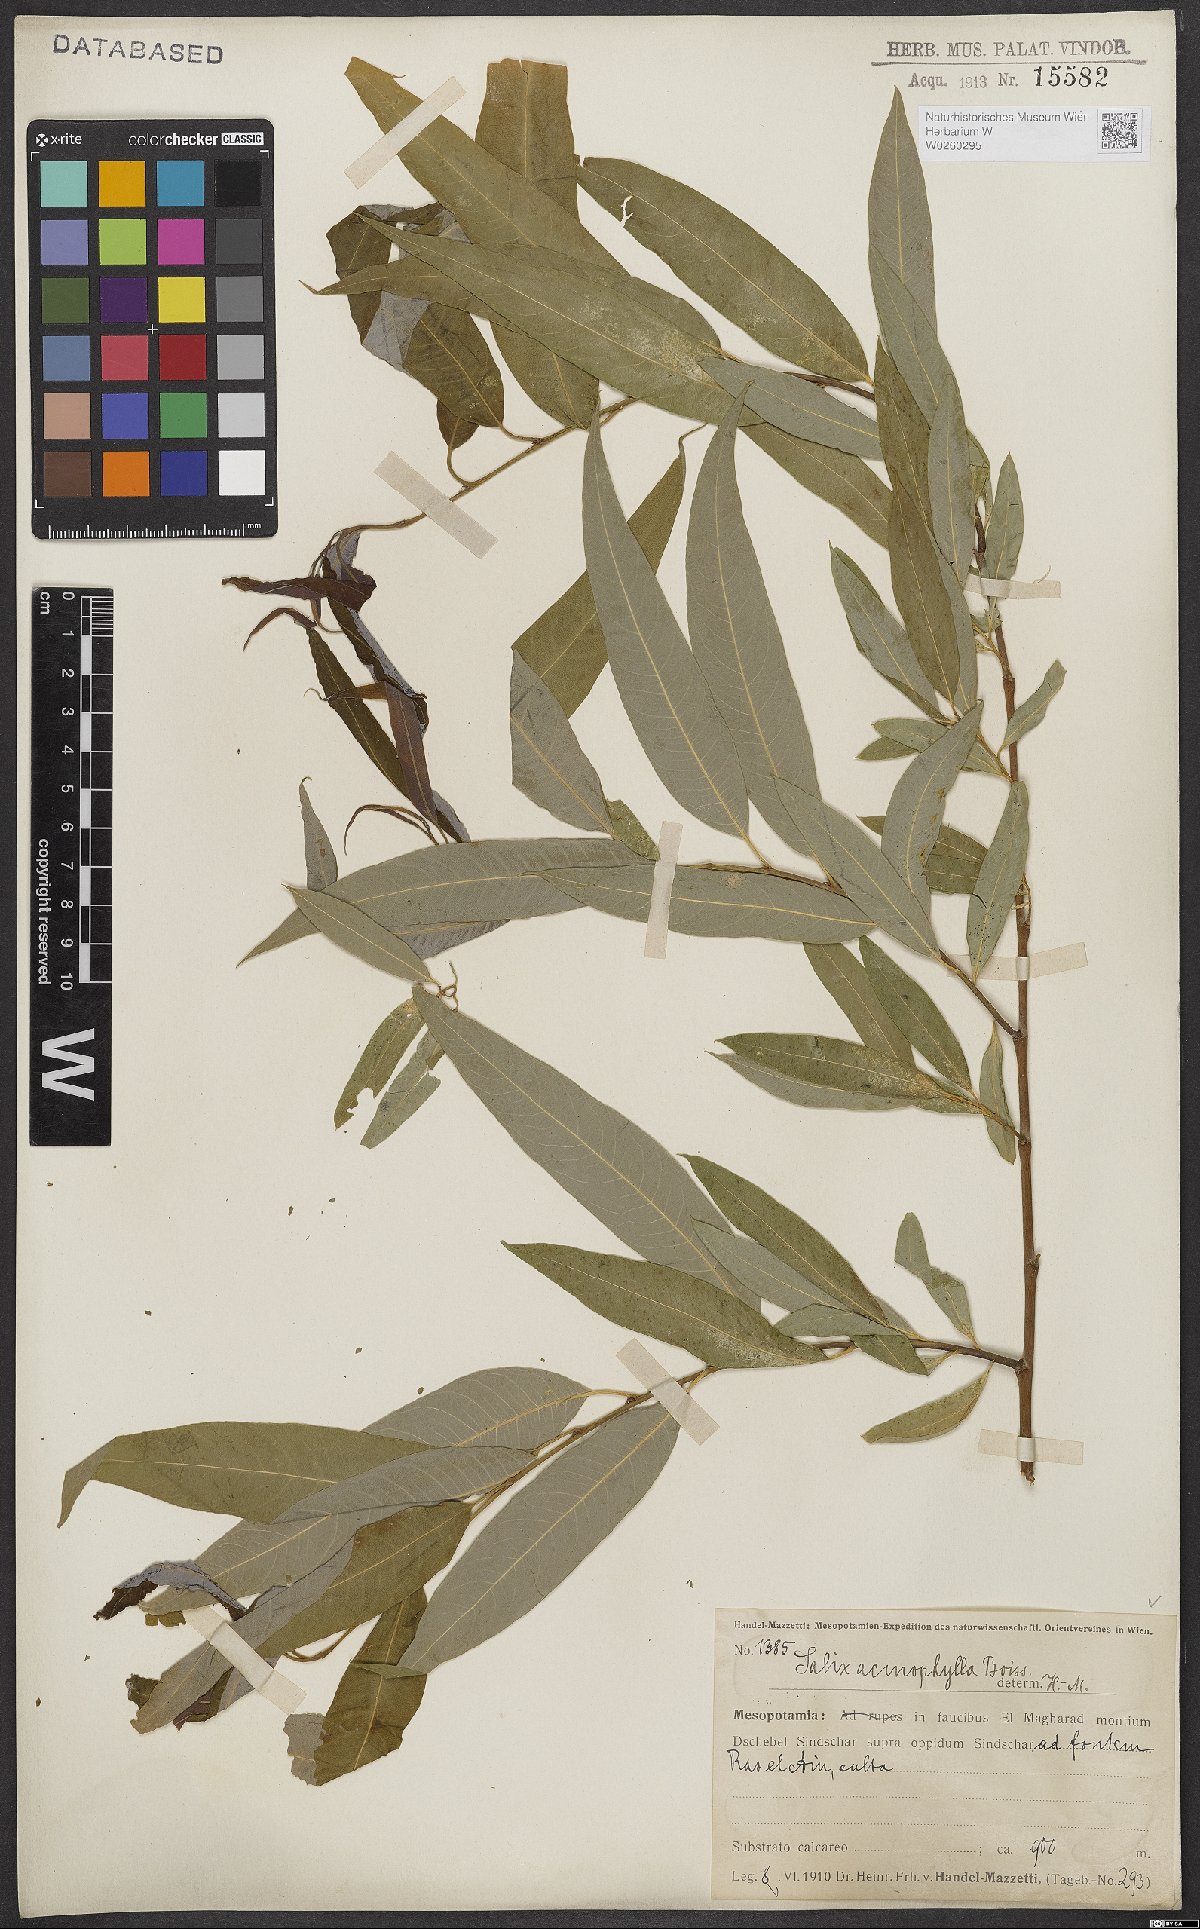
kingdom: Plantae
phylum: Tracheophyta
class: Magnoliopsida
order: Malpighiales
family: Salicaceae
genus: Salix
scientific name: Salix acmophylla
